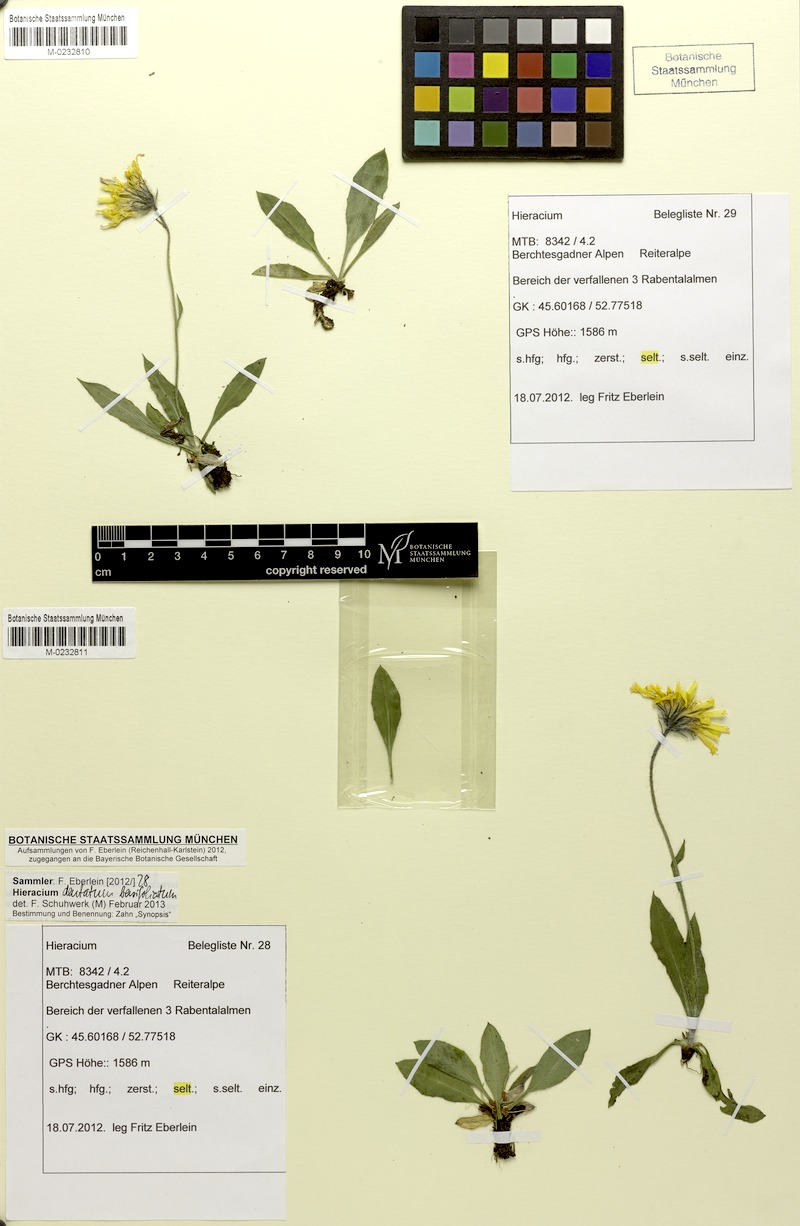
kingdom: Plantae
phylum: Tracheophyta
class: Magnoliopsida
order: Asterales
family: Asteraceae
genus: Hieracium
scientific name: Hieracium dentatum
